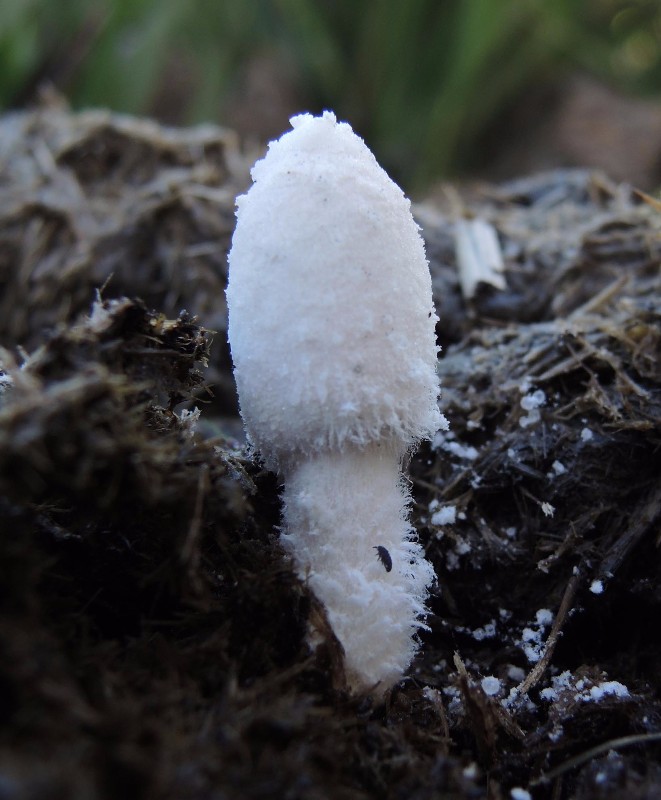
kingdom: Fungi
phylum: Basidiomycota
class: Agaricomycetes
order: Agaricales
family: Psathyrellaceae
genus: Coprinopsis
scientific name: Coprinopsis nivea
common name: snehvid blækhat
